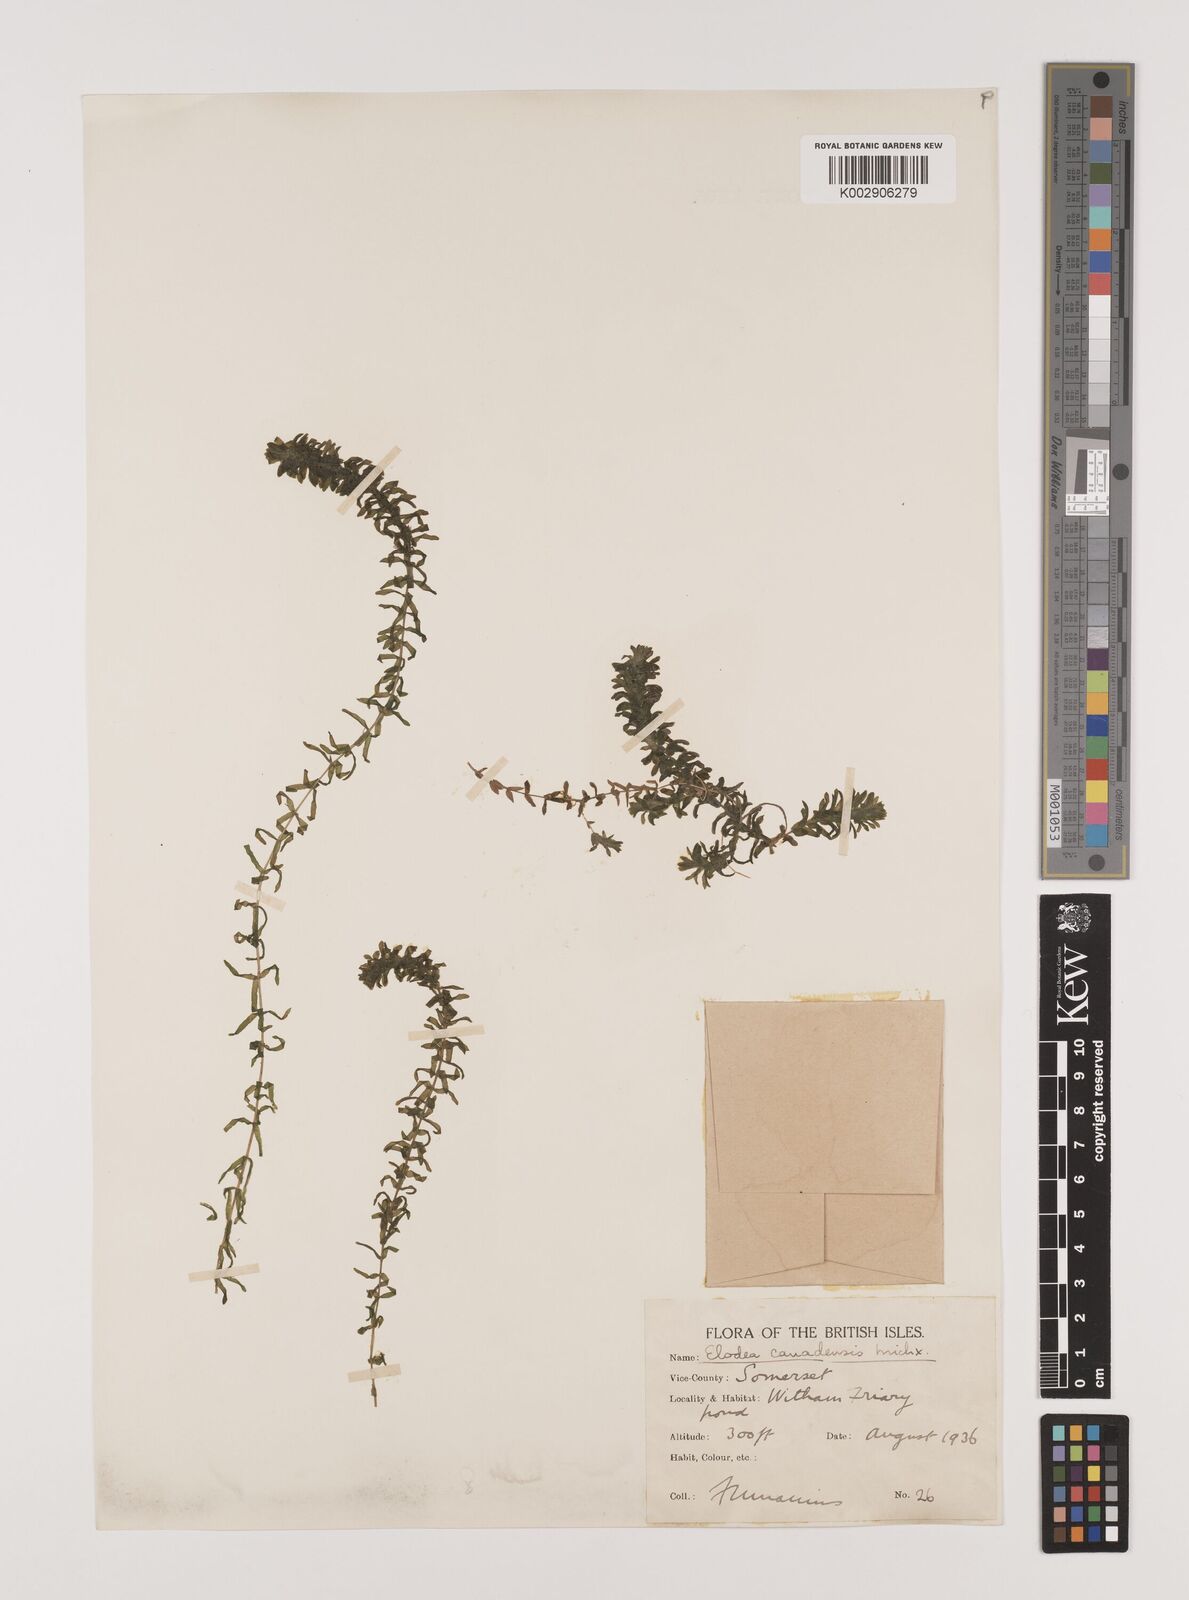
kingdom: Plantae
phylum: Tracheophyta
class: Liliopsida
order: Alismatales
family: Hydrocharitaceae
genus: Elodea
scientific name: Elodea canadensis
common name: Canadian waterweed
